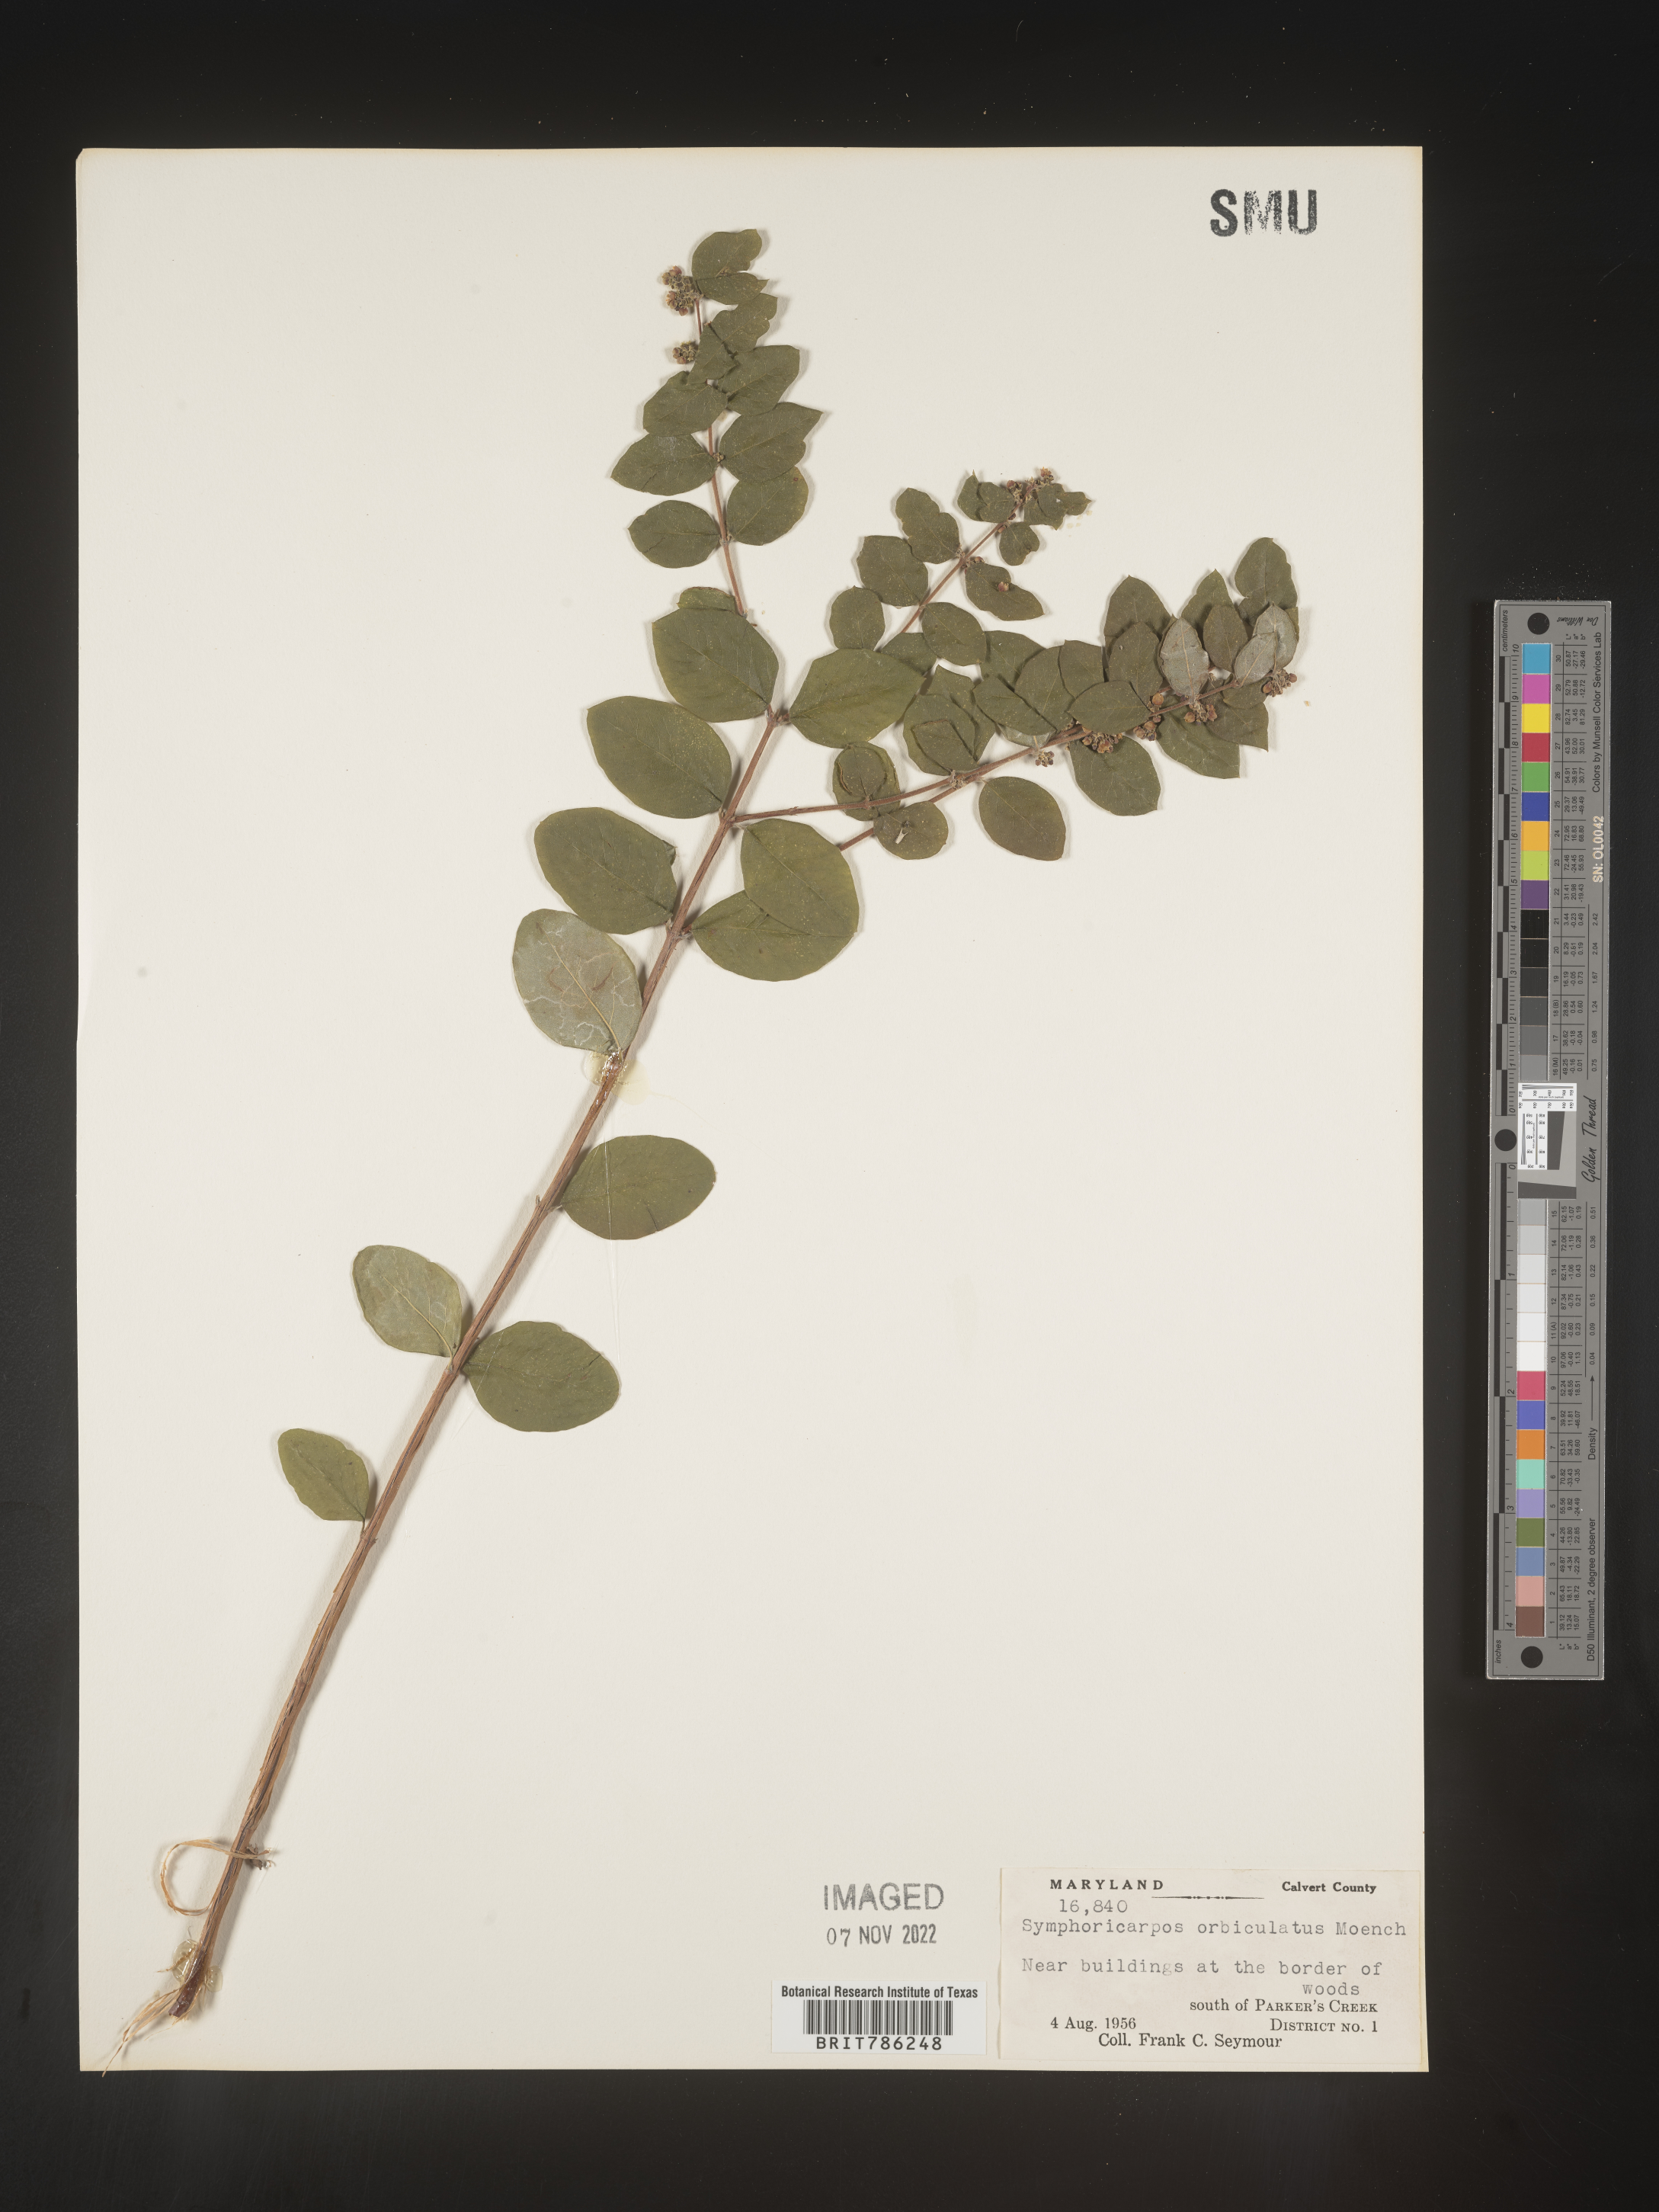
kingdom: Plantae
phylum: Tracheophyta
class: Magnoliopsida
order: Dipsacales
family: Caprifoliaceae
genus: Symphoricarpos
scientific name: Symphoricarpos orbiculatus
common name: Coralberry
